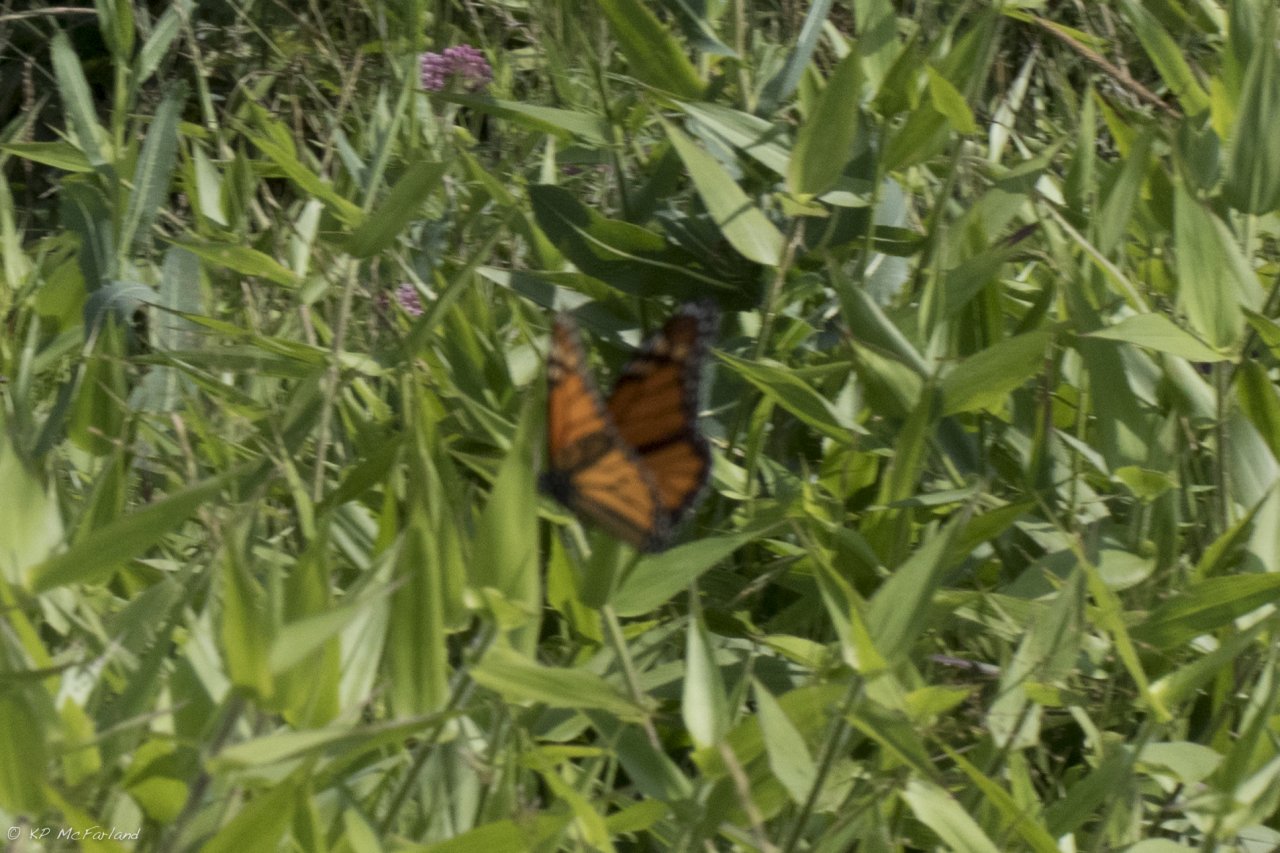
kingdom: Animalia
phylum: Arthropoda
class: Insecta
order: Lepidoptera
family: Nymphalidae
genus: Danaus
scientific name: Danaus plexippus
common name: Monarch
